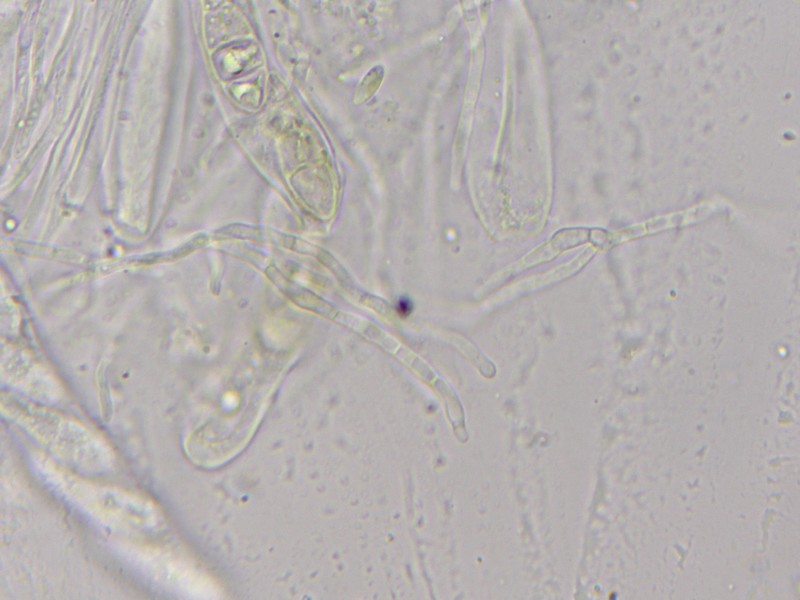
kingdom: Fungi
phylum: Ascomycota
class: Leotiomycetes
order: Helotiales
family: Helotiaceae
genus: Durella
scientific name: Durella atrocyanea
